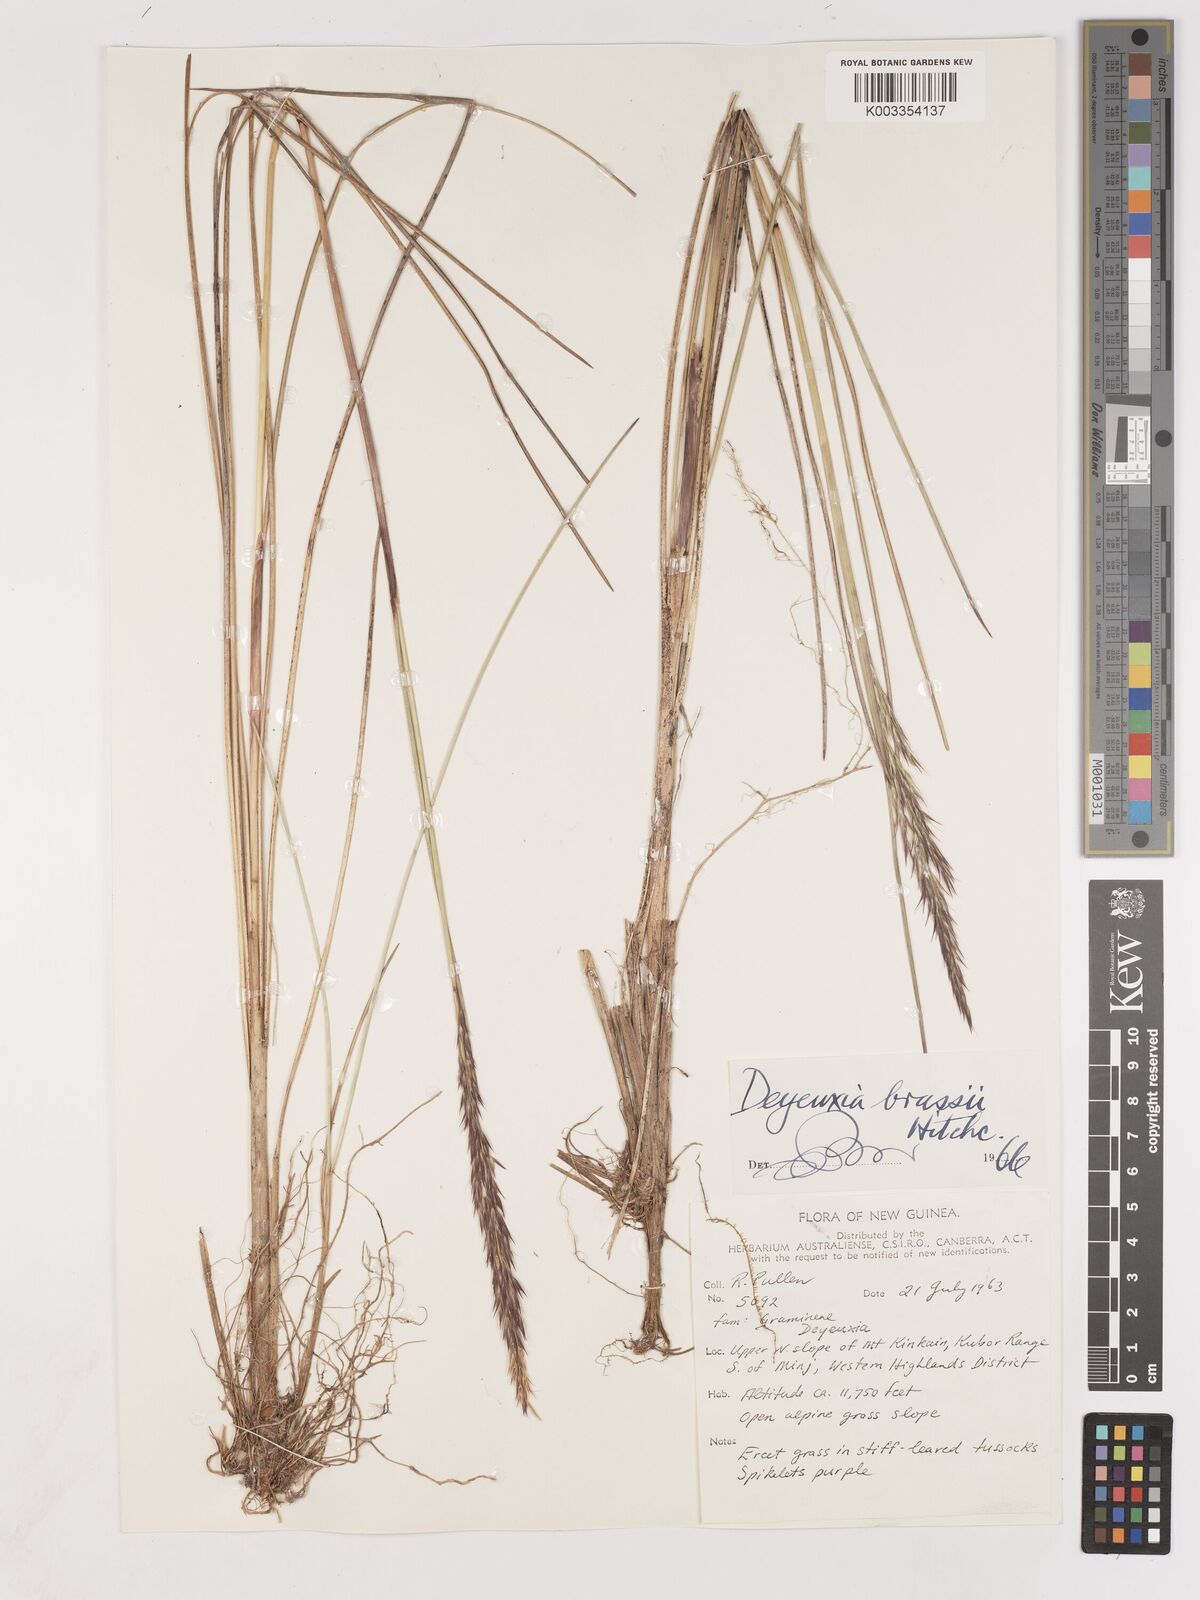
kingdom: Plantae
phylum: Tracheophyta
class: Liliopsida
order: Poales
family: Poaceae
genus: Calamagrostis
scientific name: Calamagrostis brassii
